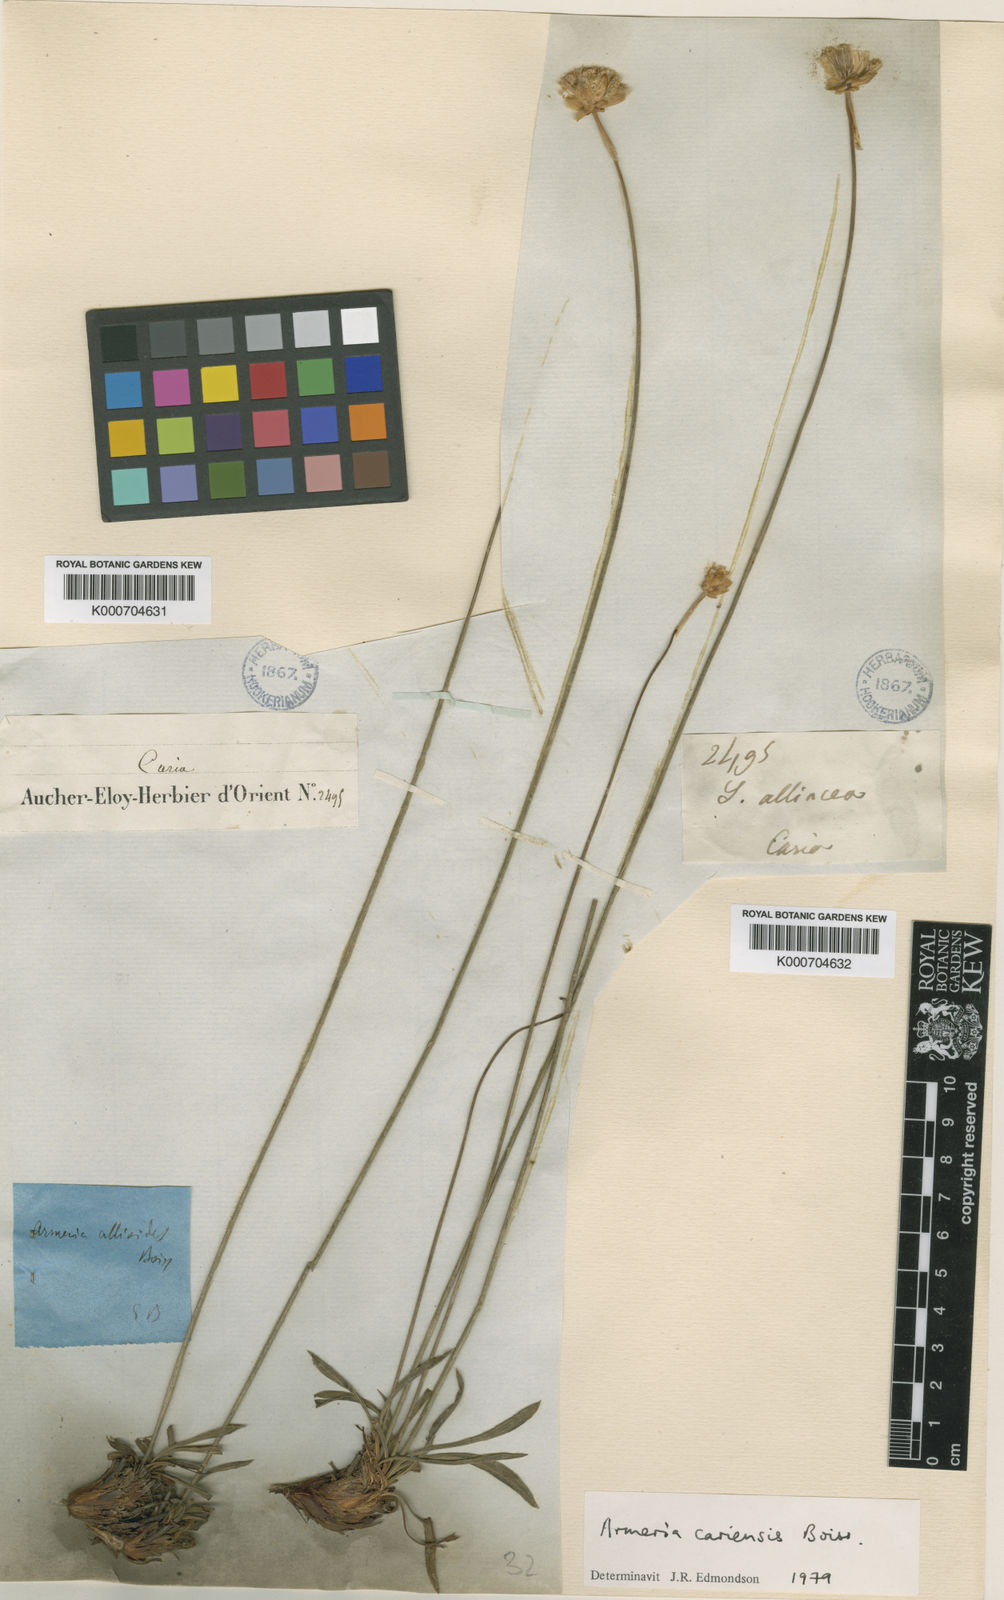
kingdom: Plantae
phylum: Tracheophyta
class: Magnoliopsida
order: Caryophyllales
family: Plumbaginaceae
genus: Armeria
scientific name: Armeria cariensis
